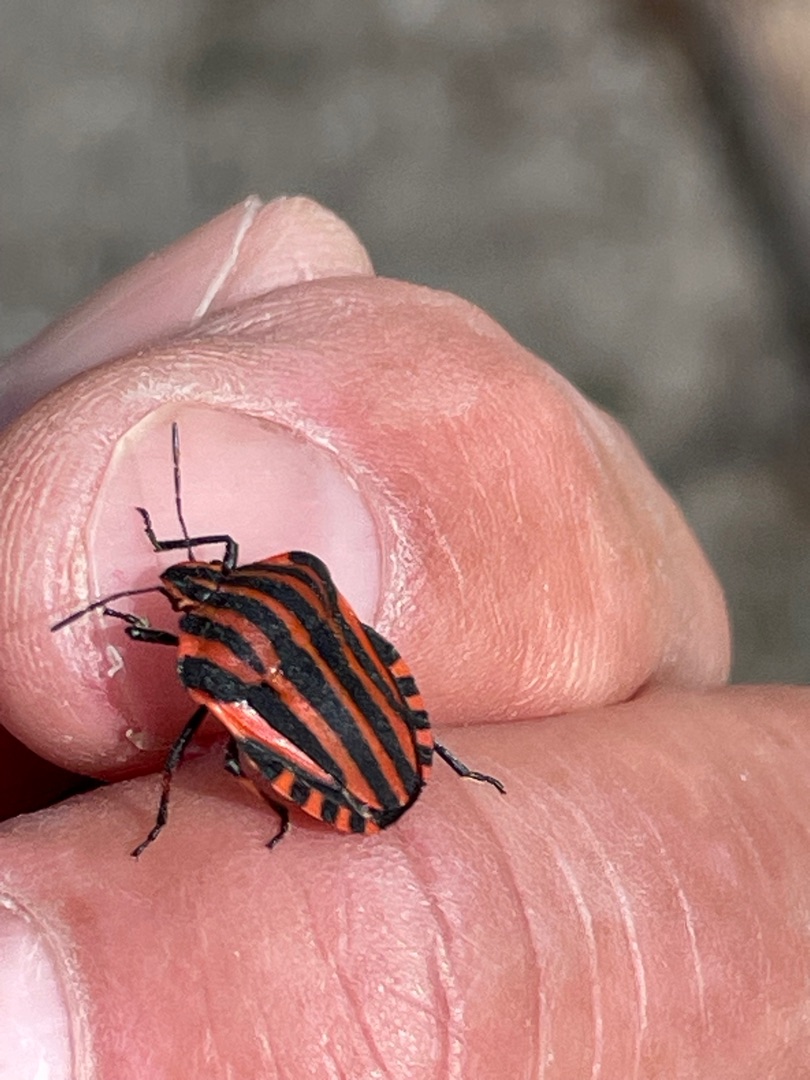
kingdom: Animalia
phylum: Arthropoda
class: Insecta
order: Hemiptera
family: Pentatomidae
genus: Graphosoma
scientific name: Graphosoma italicum
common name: Stribetæge
